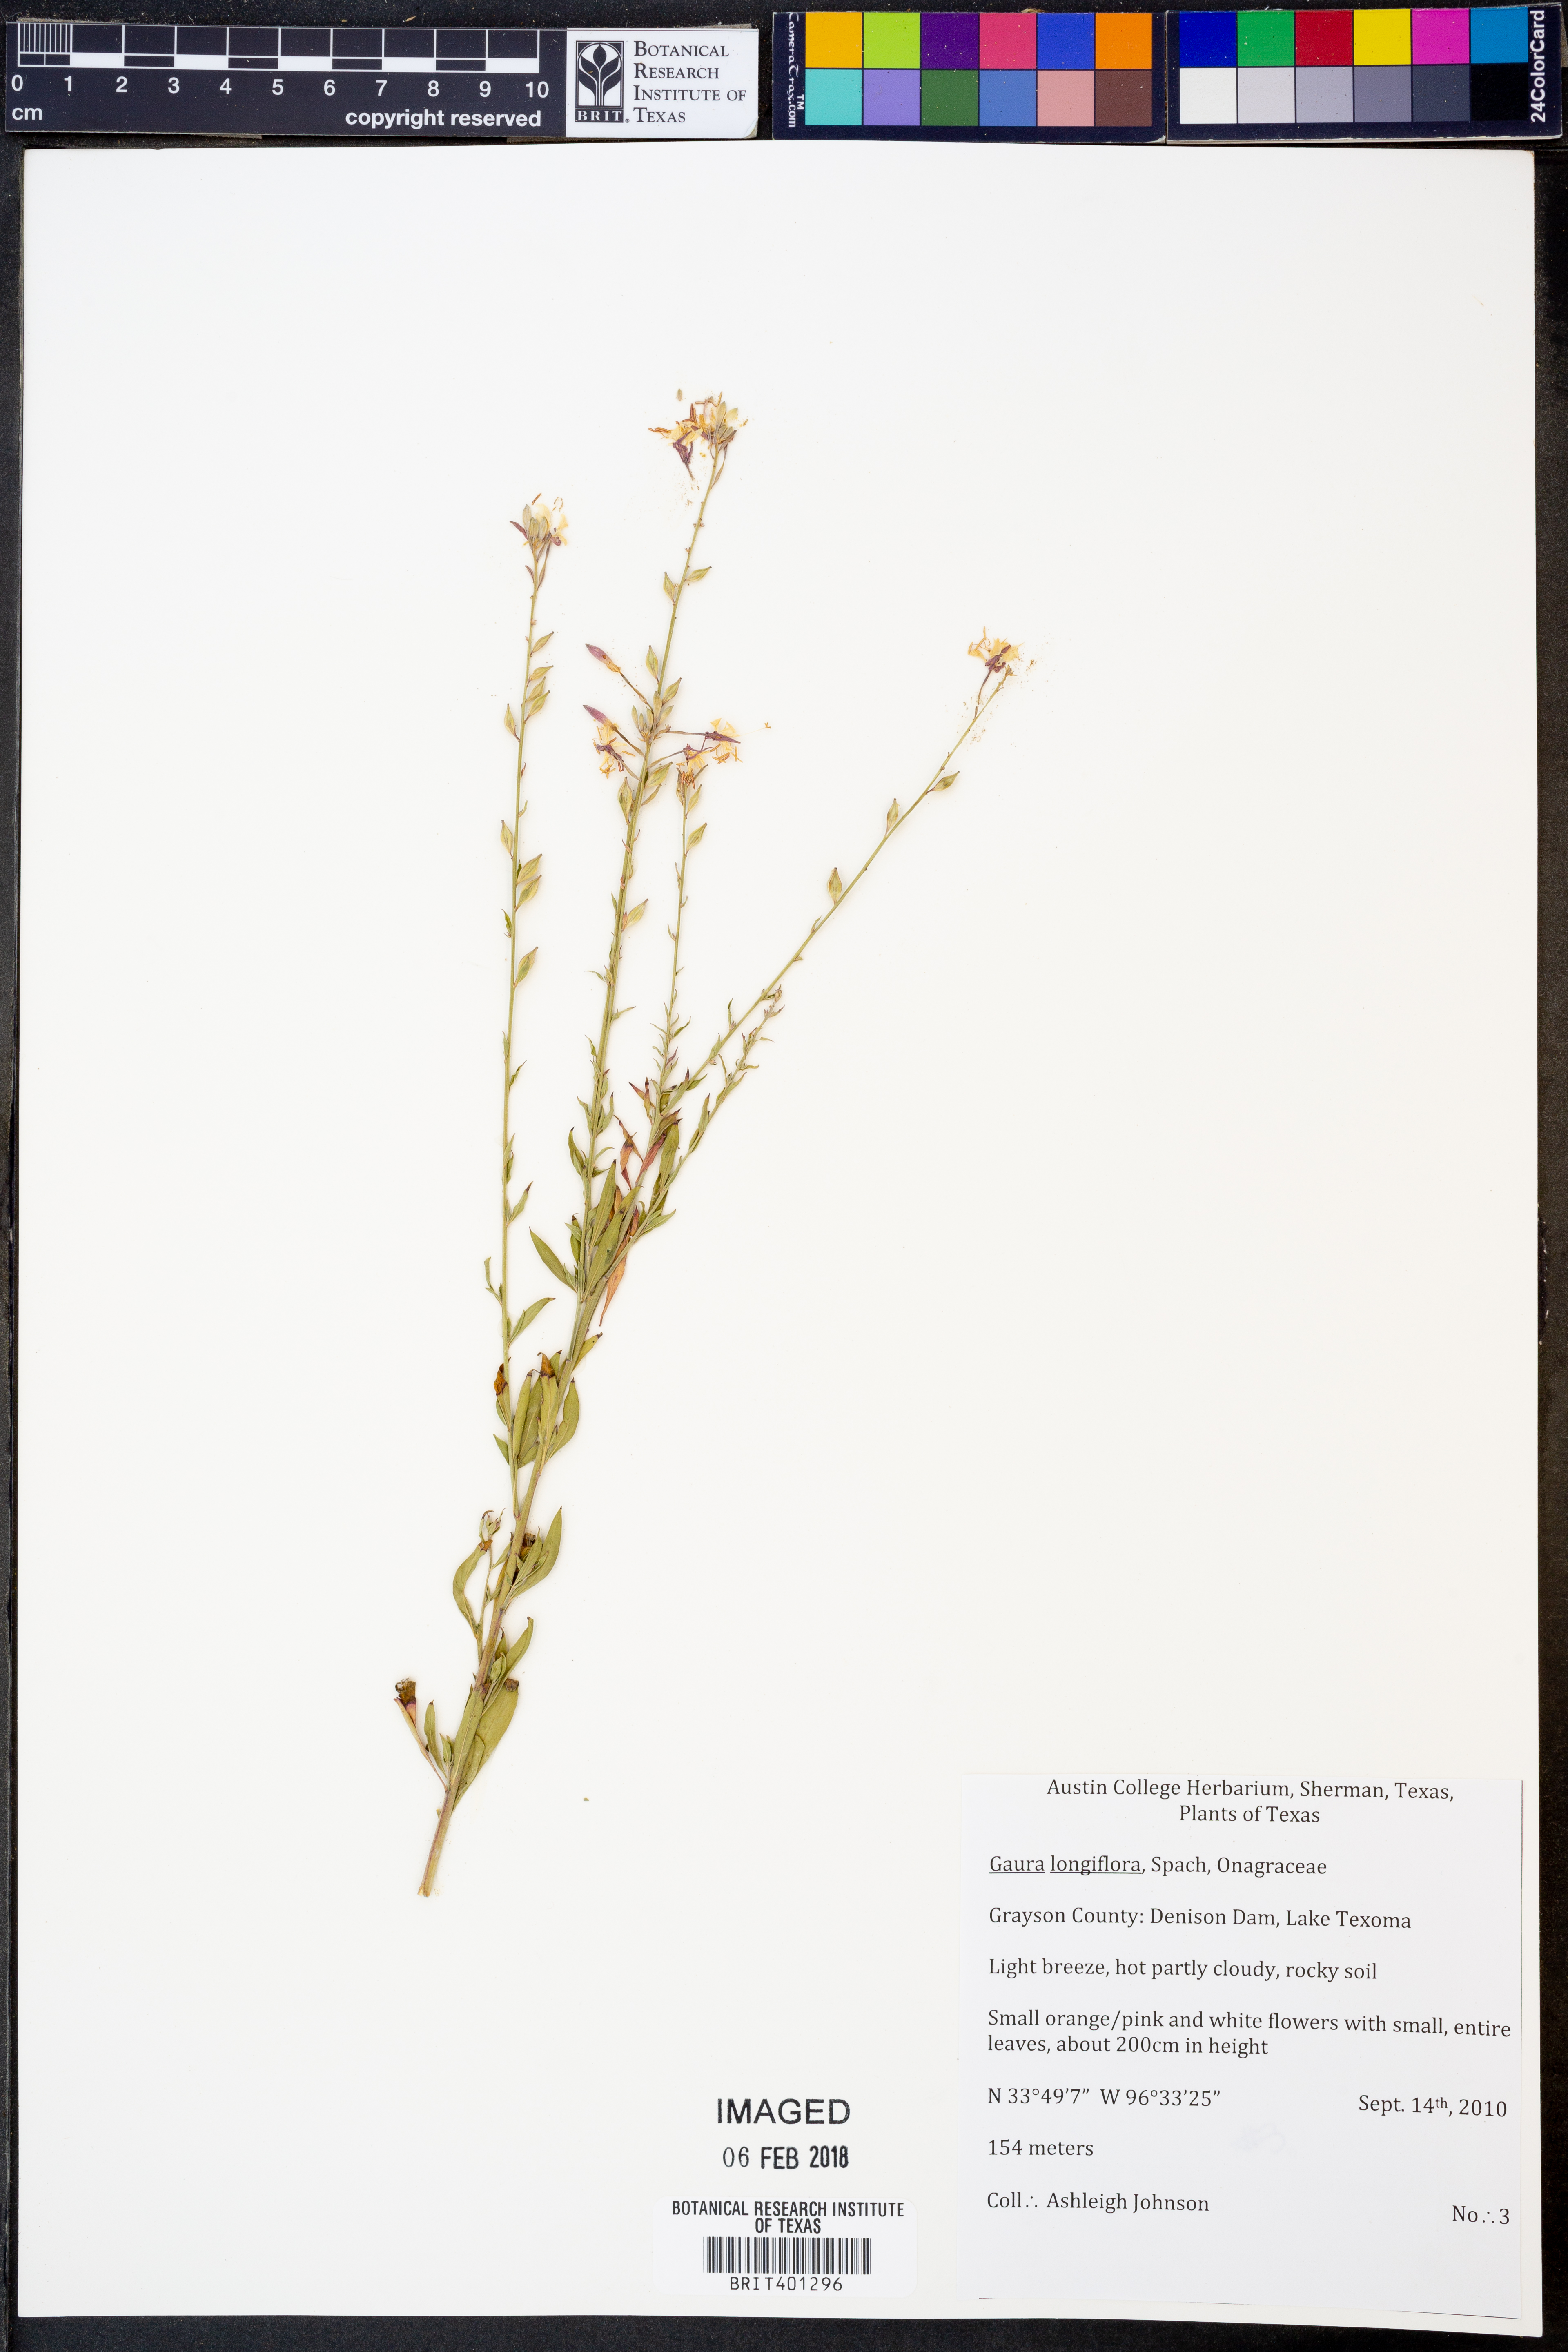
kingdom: Plantae
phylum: Tracheophyta
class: Magnoliopsida
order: Myrtales
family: Onagraceae
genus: Oenothera
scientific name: Oenothera filiformis
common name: Longflower beeblossom
